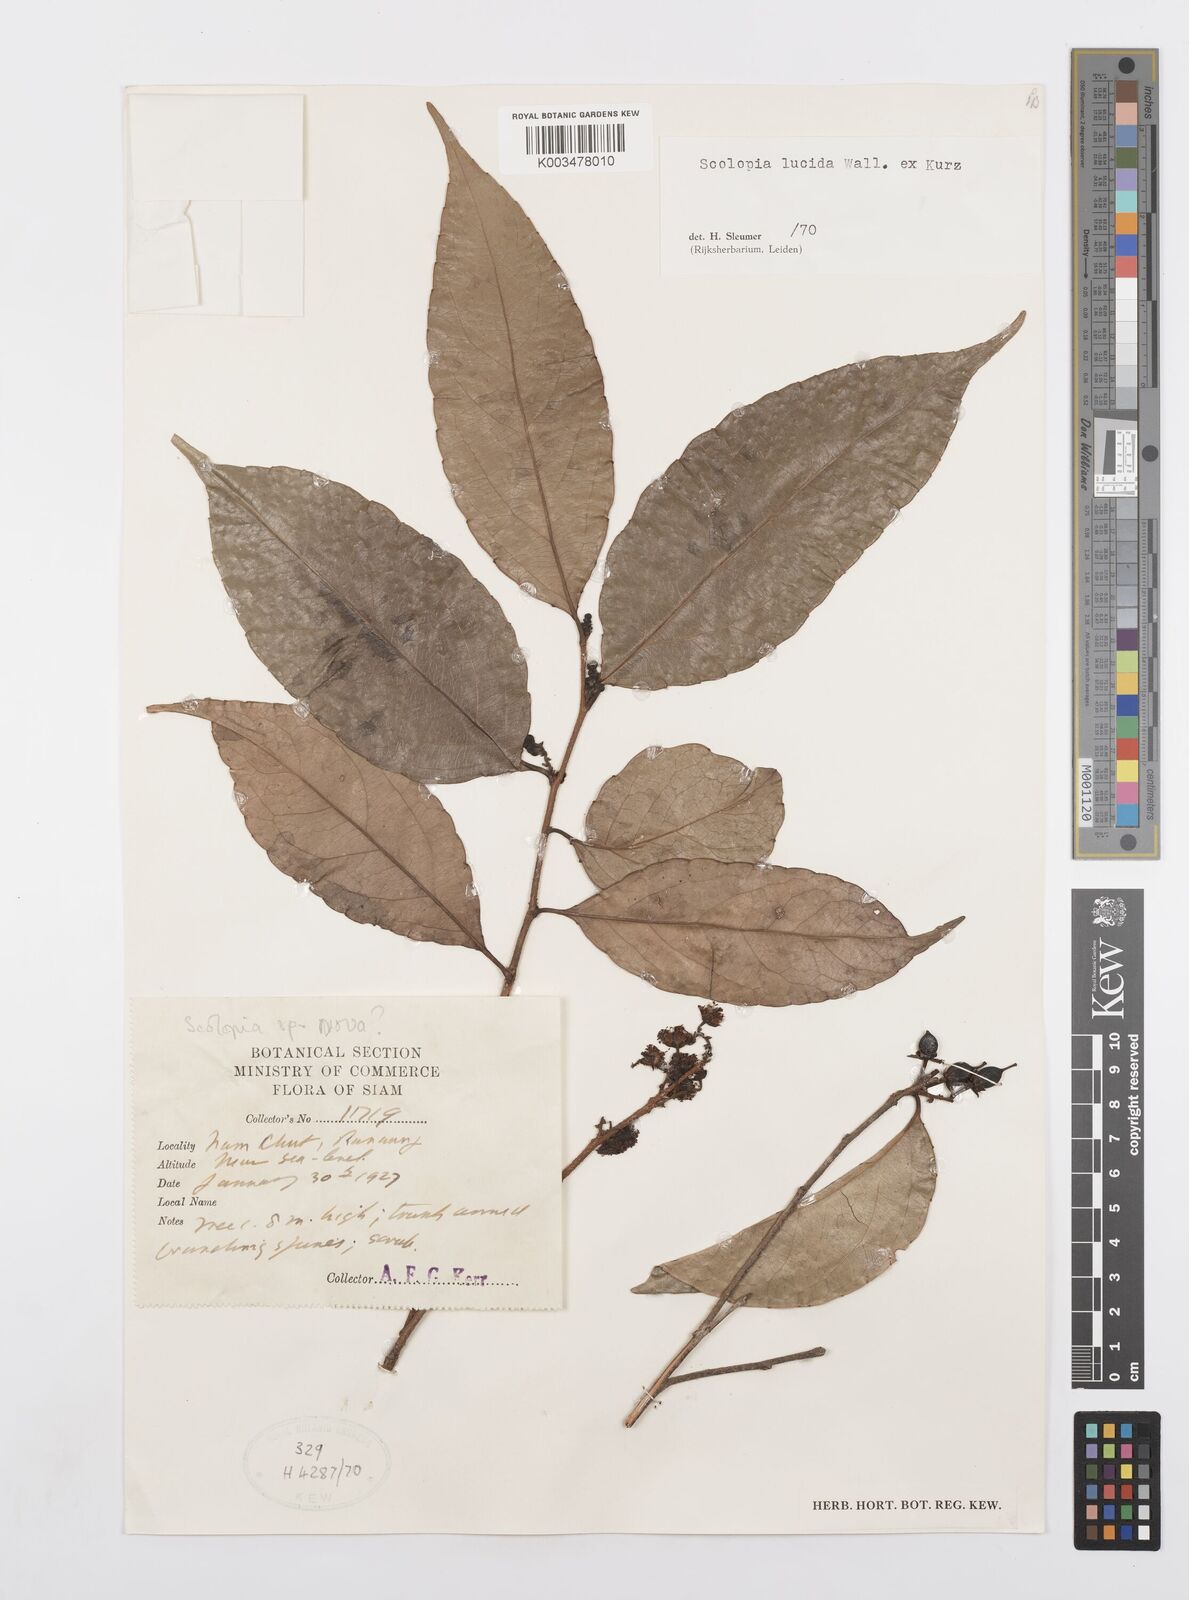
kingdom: Plantae
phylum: Tracheophyta
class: Magnoliopsida
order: Malpighiales
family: Salicaceae
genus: Scolopia
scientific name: Scolopia lucida
